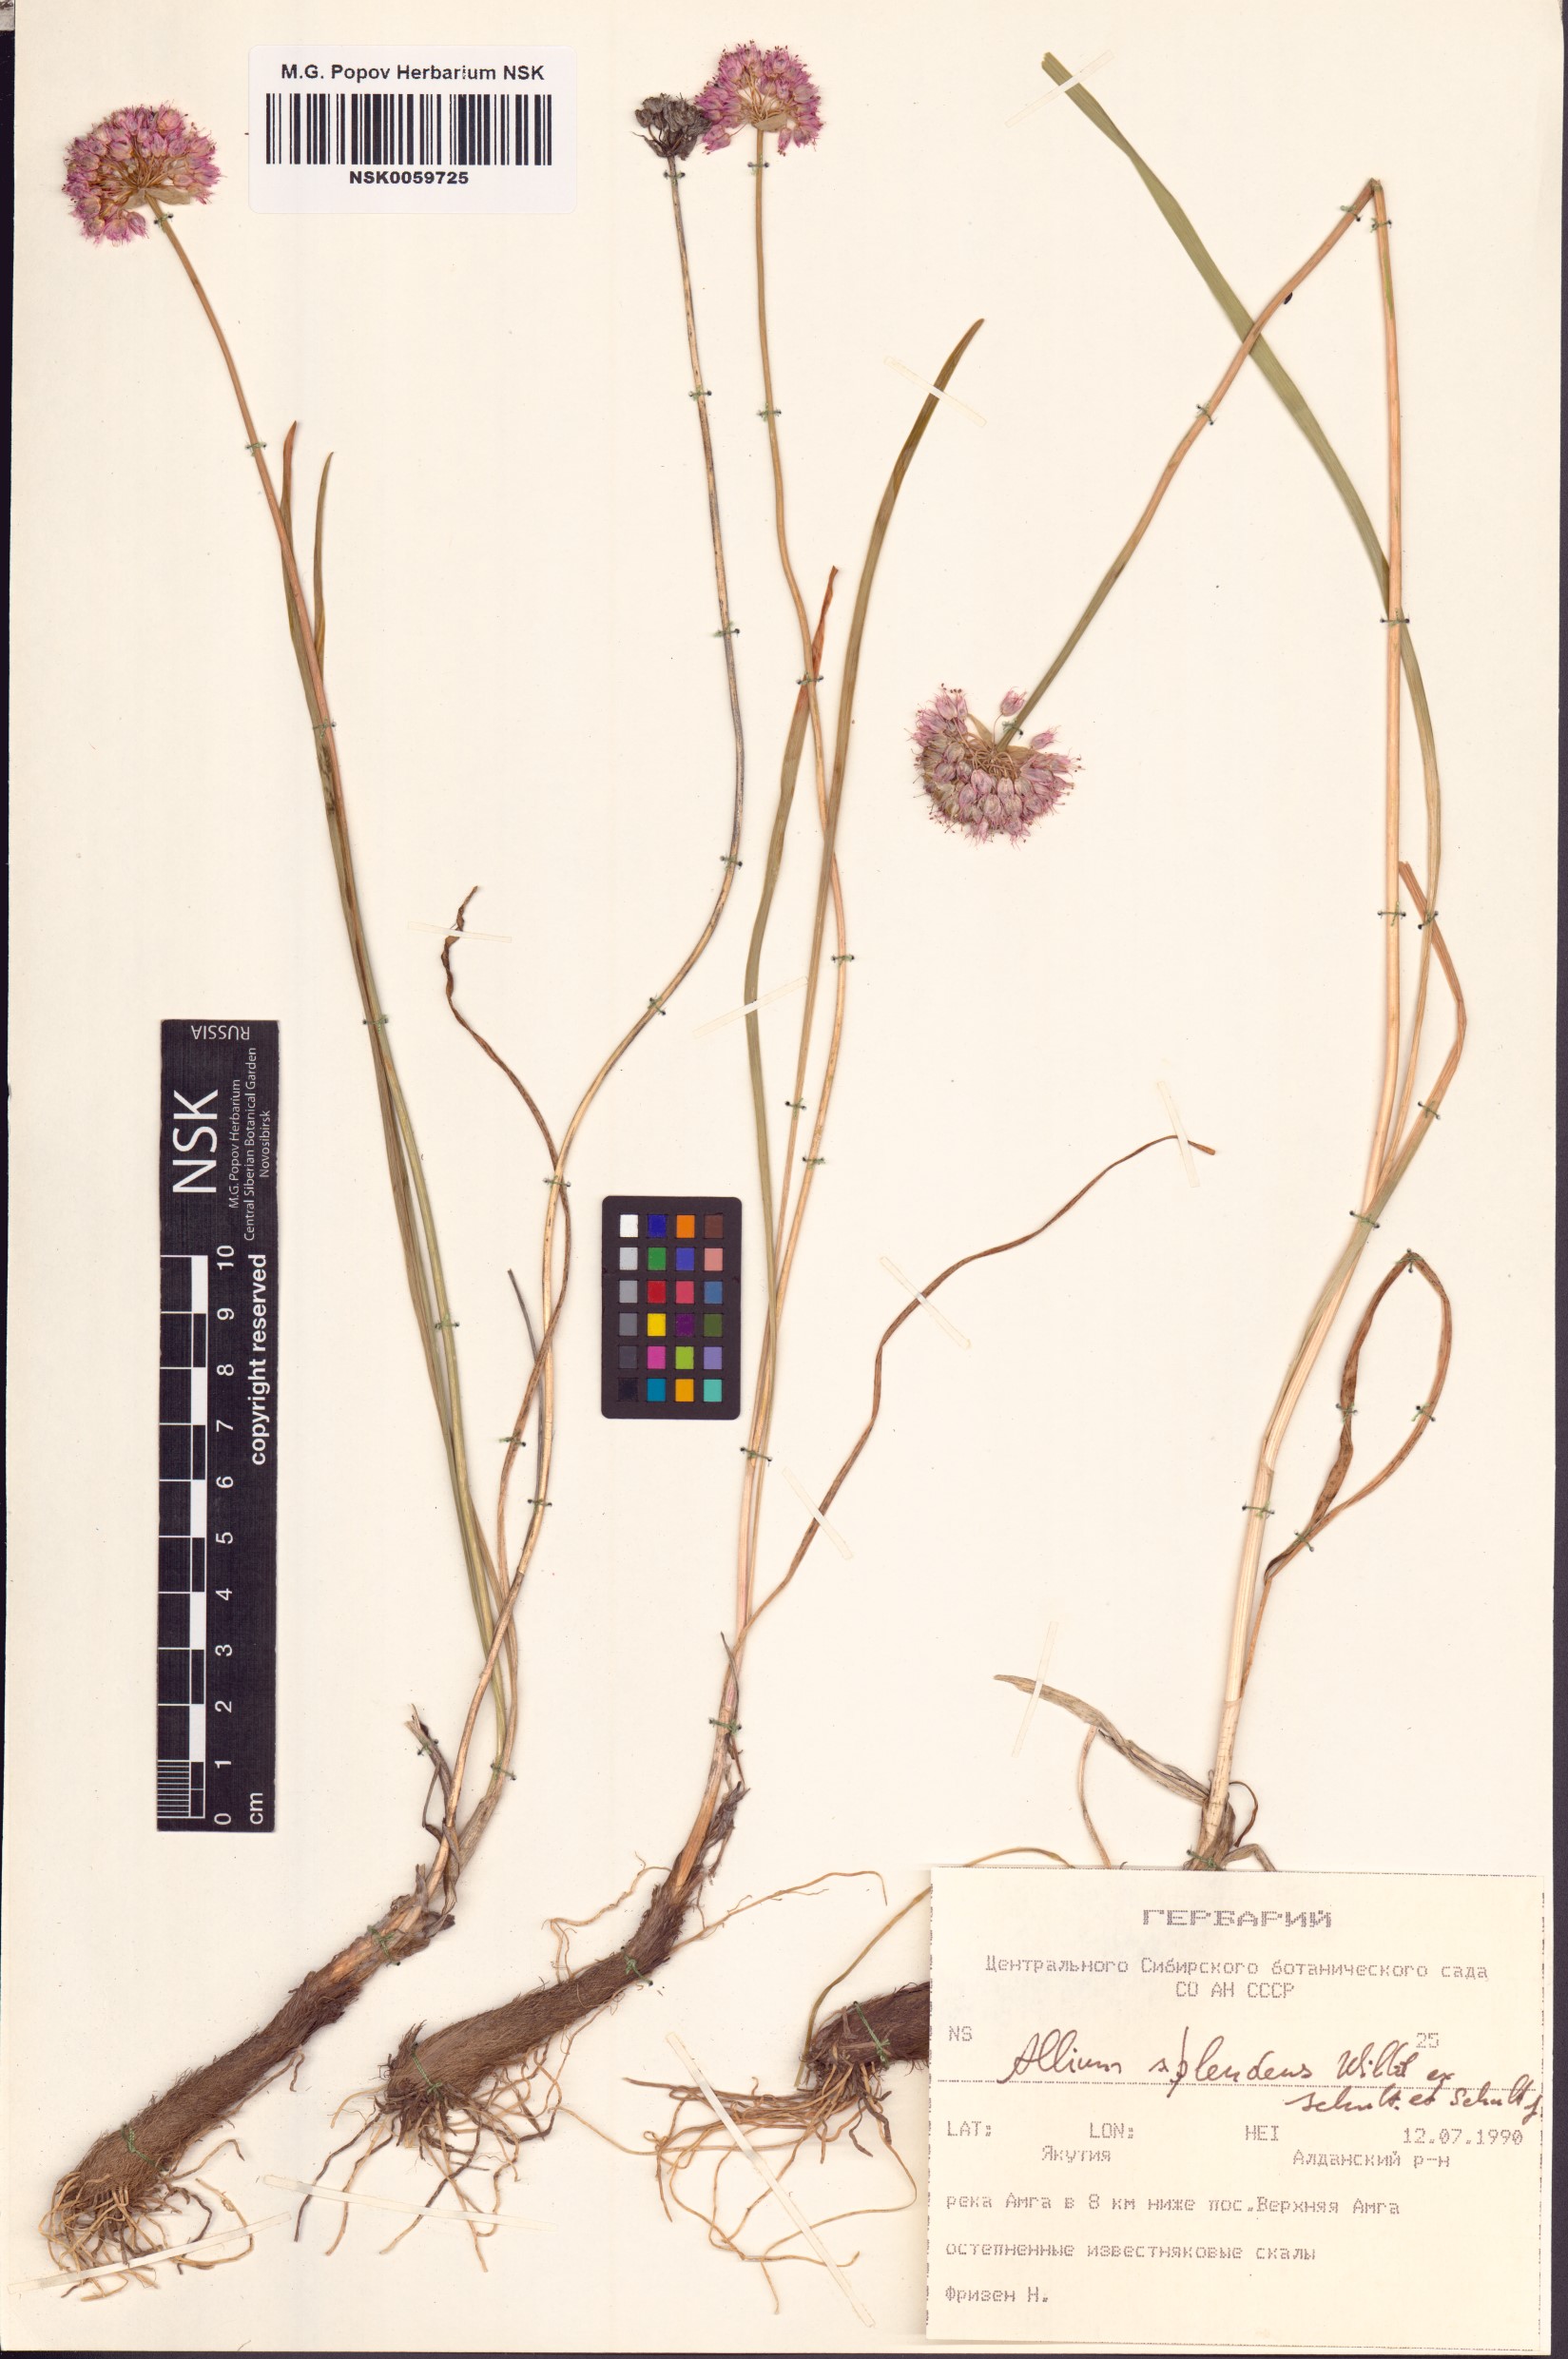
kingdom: Plantae
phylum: Tracheophyta
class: Liliopsida
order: Asparagales
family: Amaryllidaceae
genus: Allium
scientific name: Allium splendens
